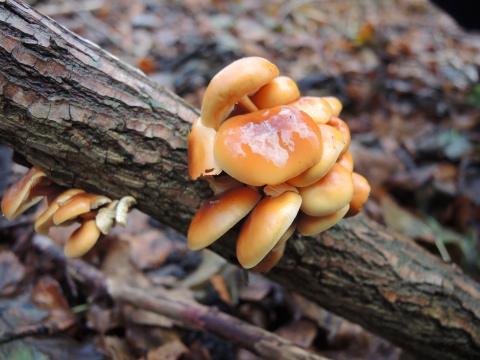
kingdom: Fungi
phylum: Basidiomycota
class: Agaricomycetes
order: Agaricales
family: Physalacriaceae
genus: Flammulina
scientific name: Flammulina velutipes
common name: gul fløjlsfod
